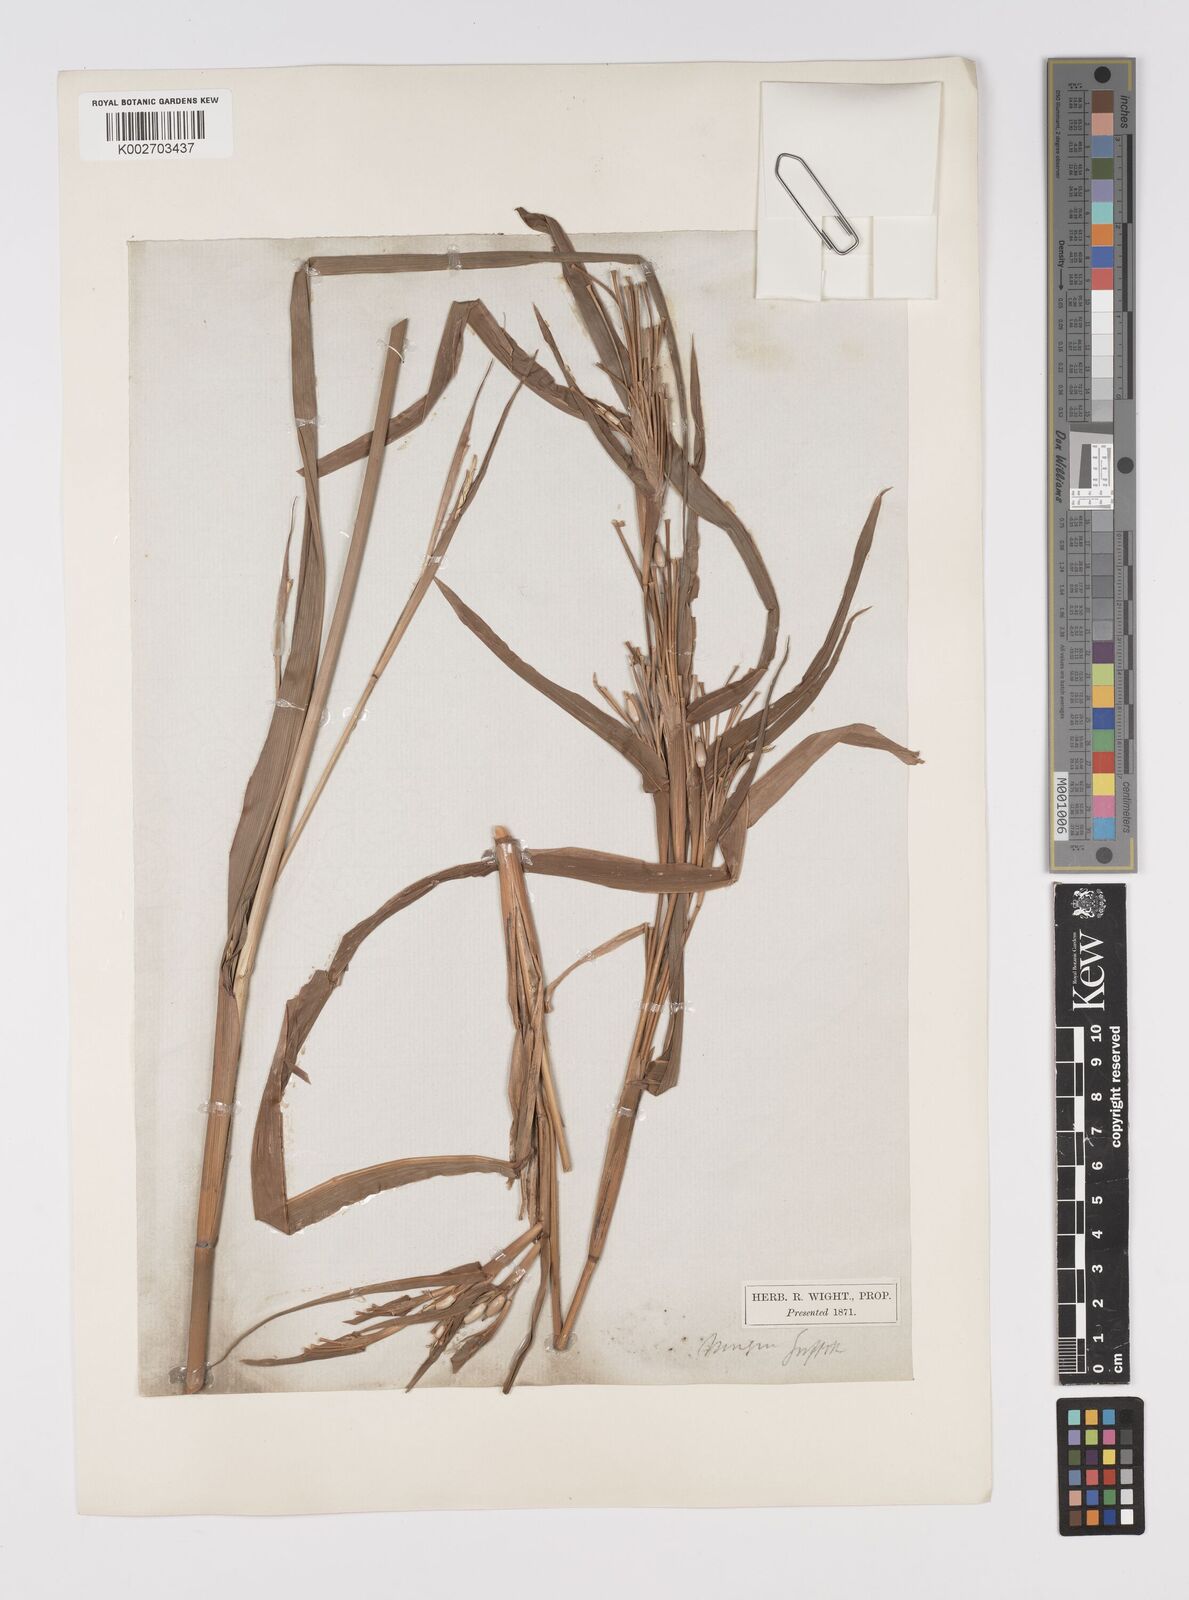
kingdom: Plantae
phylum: Tracheophyta
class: Liliopsida
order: Poales
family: Poaceae
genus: Coix
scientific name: Coix lacryma-jobi
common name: Job's tears
